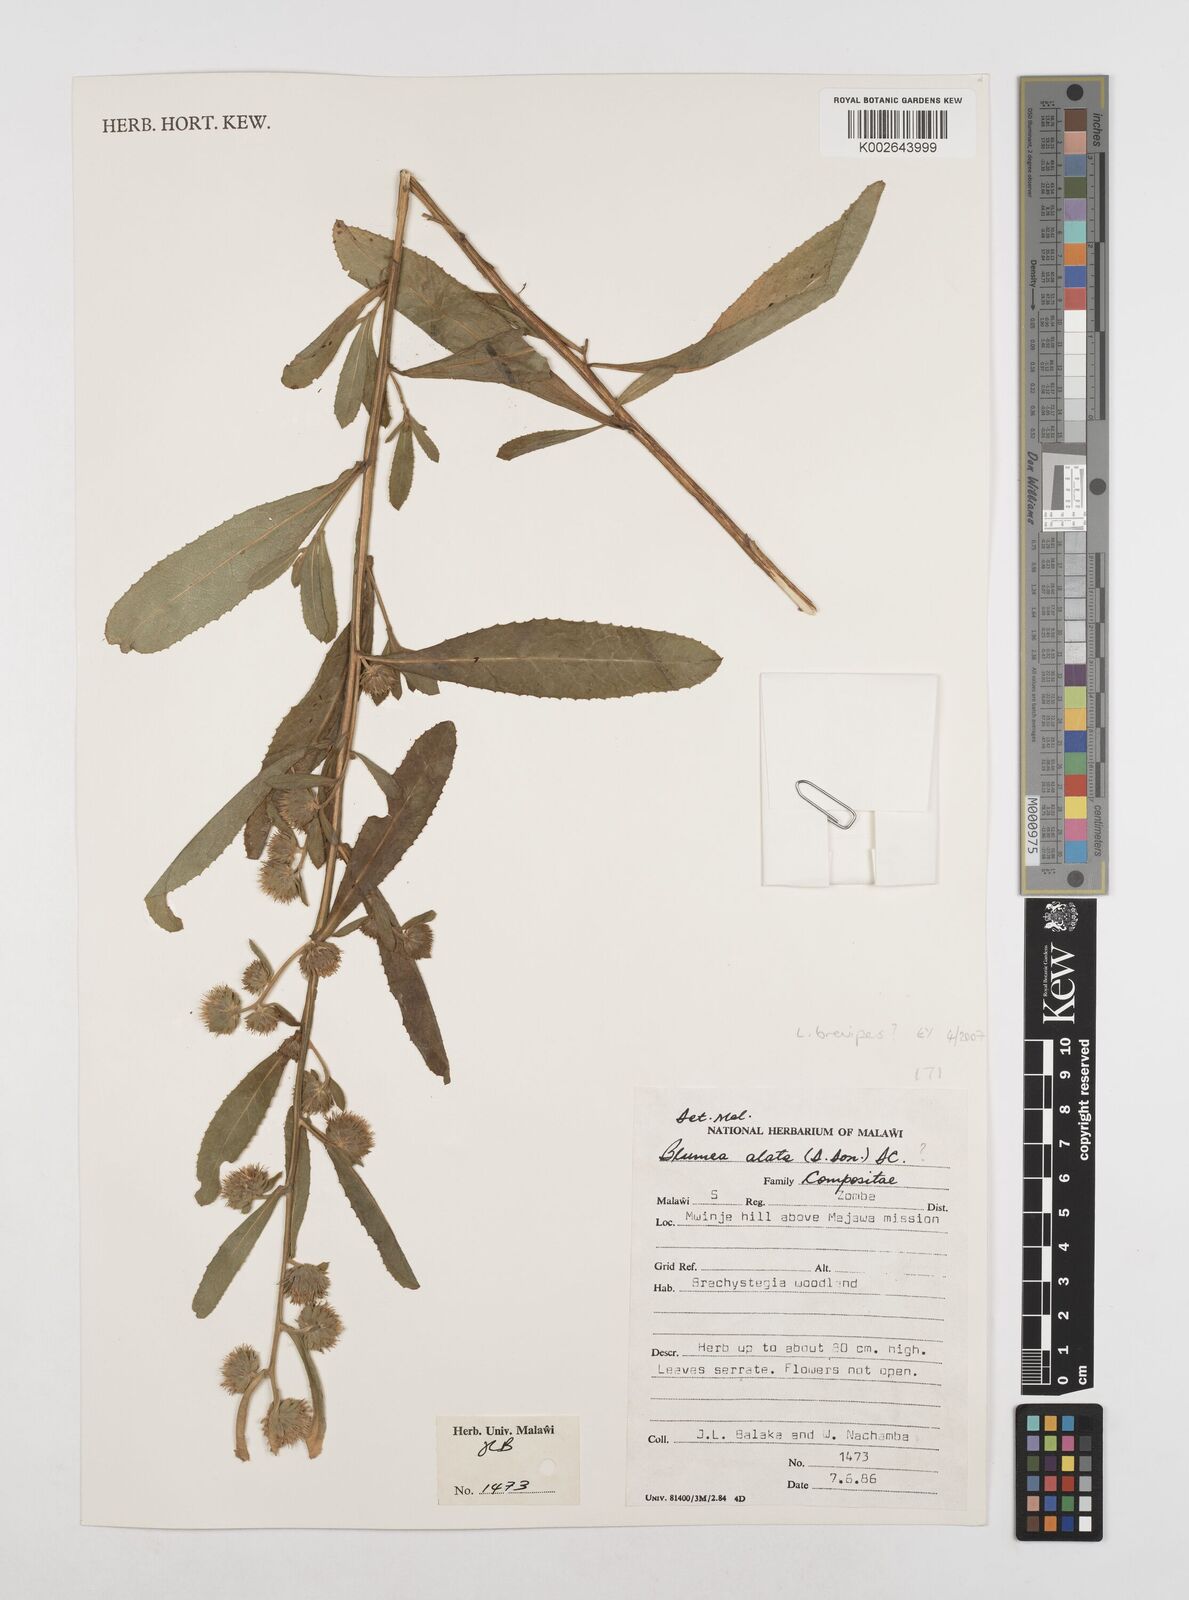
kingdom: Plantae
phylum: Tracheophyta
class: Magnoliopsida
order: Asterales
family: Asteraceae
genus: Laggera
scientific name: Laggera brevipes
